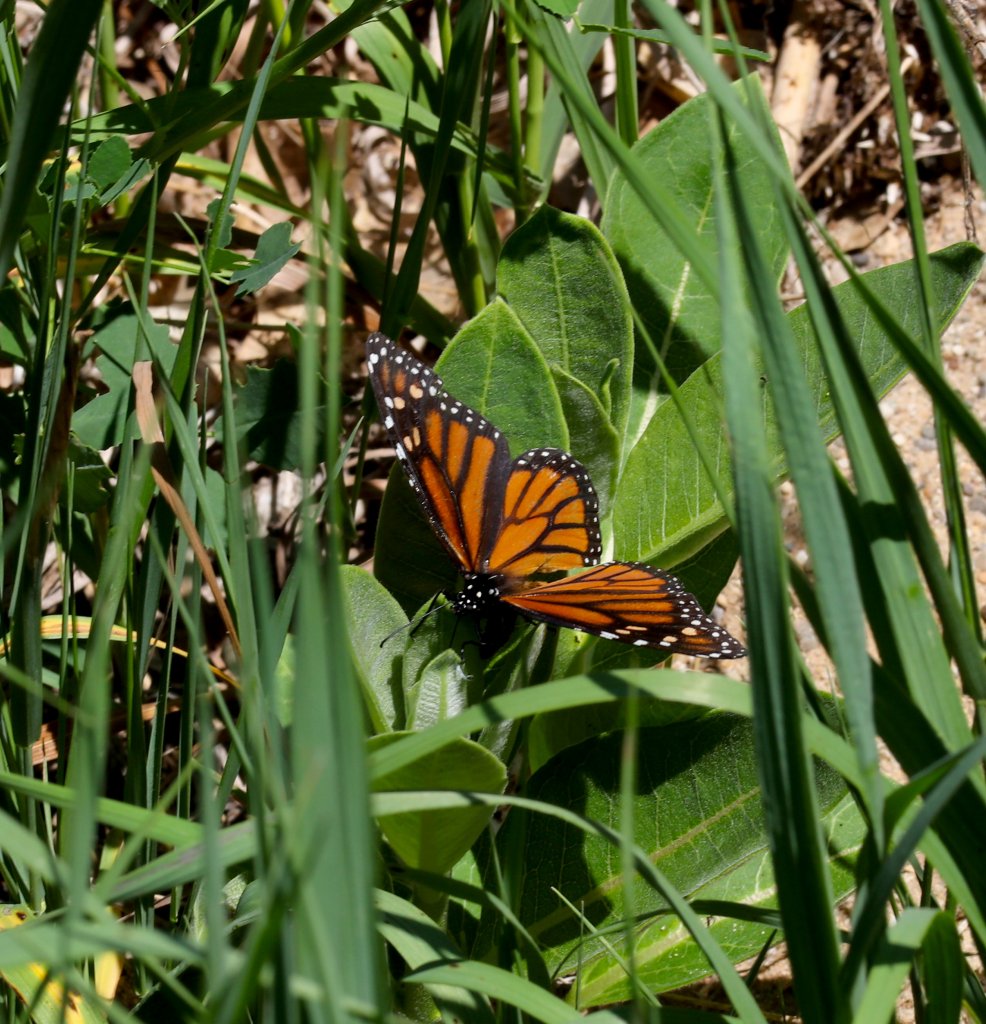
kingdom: Animalia
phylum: Arthropoda
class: Insecta
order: Lepidoptera
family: Nymphalidae
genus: Danaus
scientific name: Danaus plexippus
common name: Monarch
